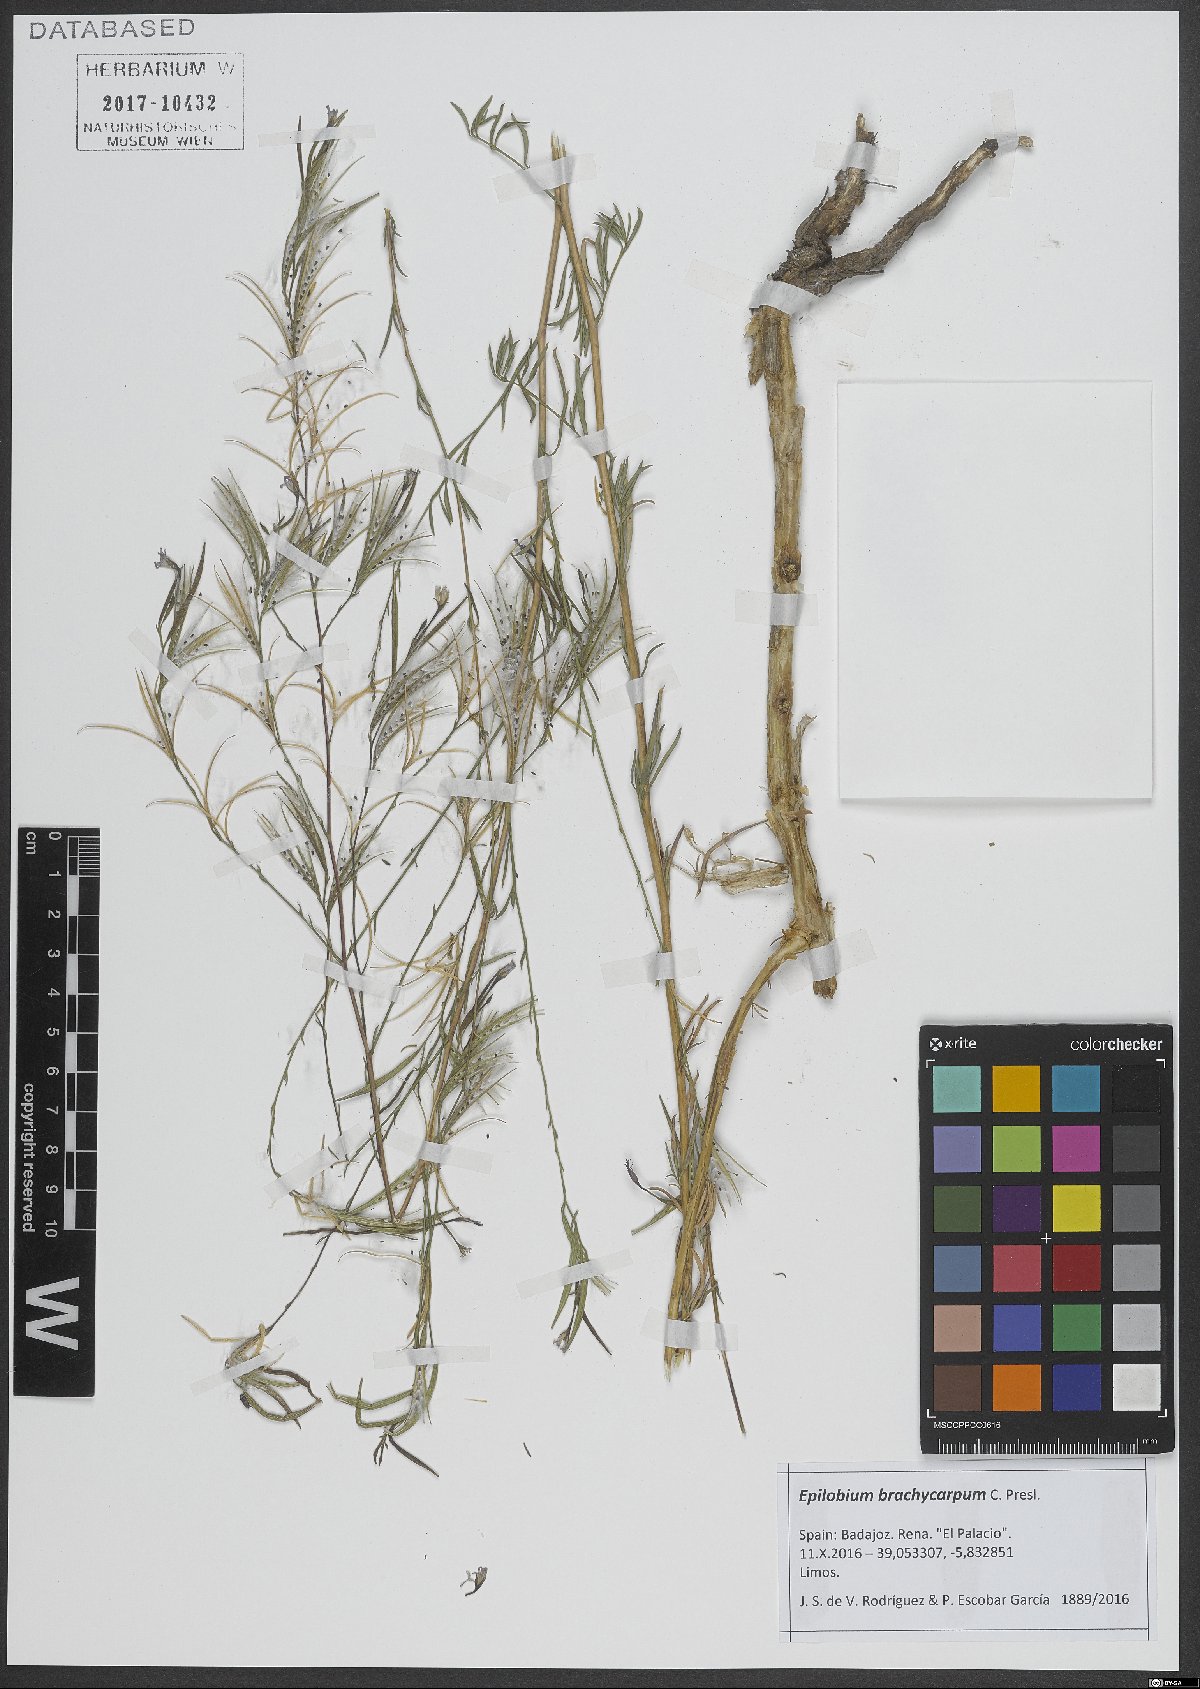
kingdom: Plantae
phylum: Tracheophyta
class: Magnoliopsida
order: Myrtales
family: Onagraceae
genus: Epilobium
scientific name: Epilobium brachycarpum
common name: Annual willowherb
